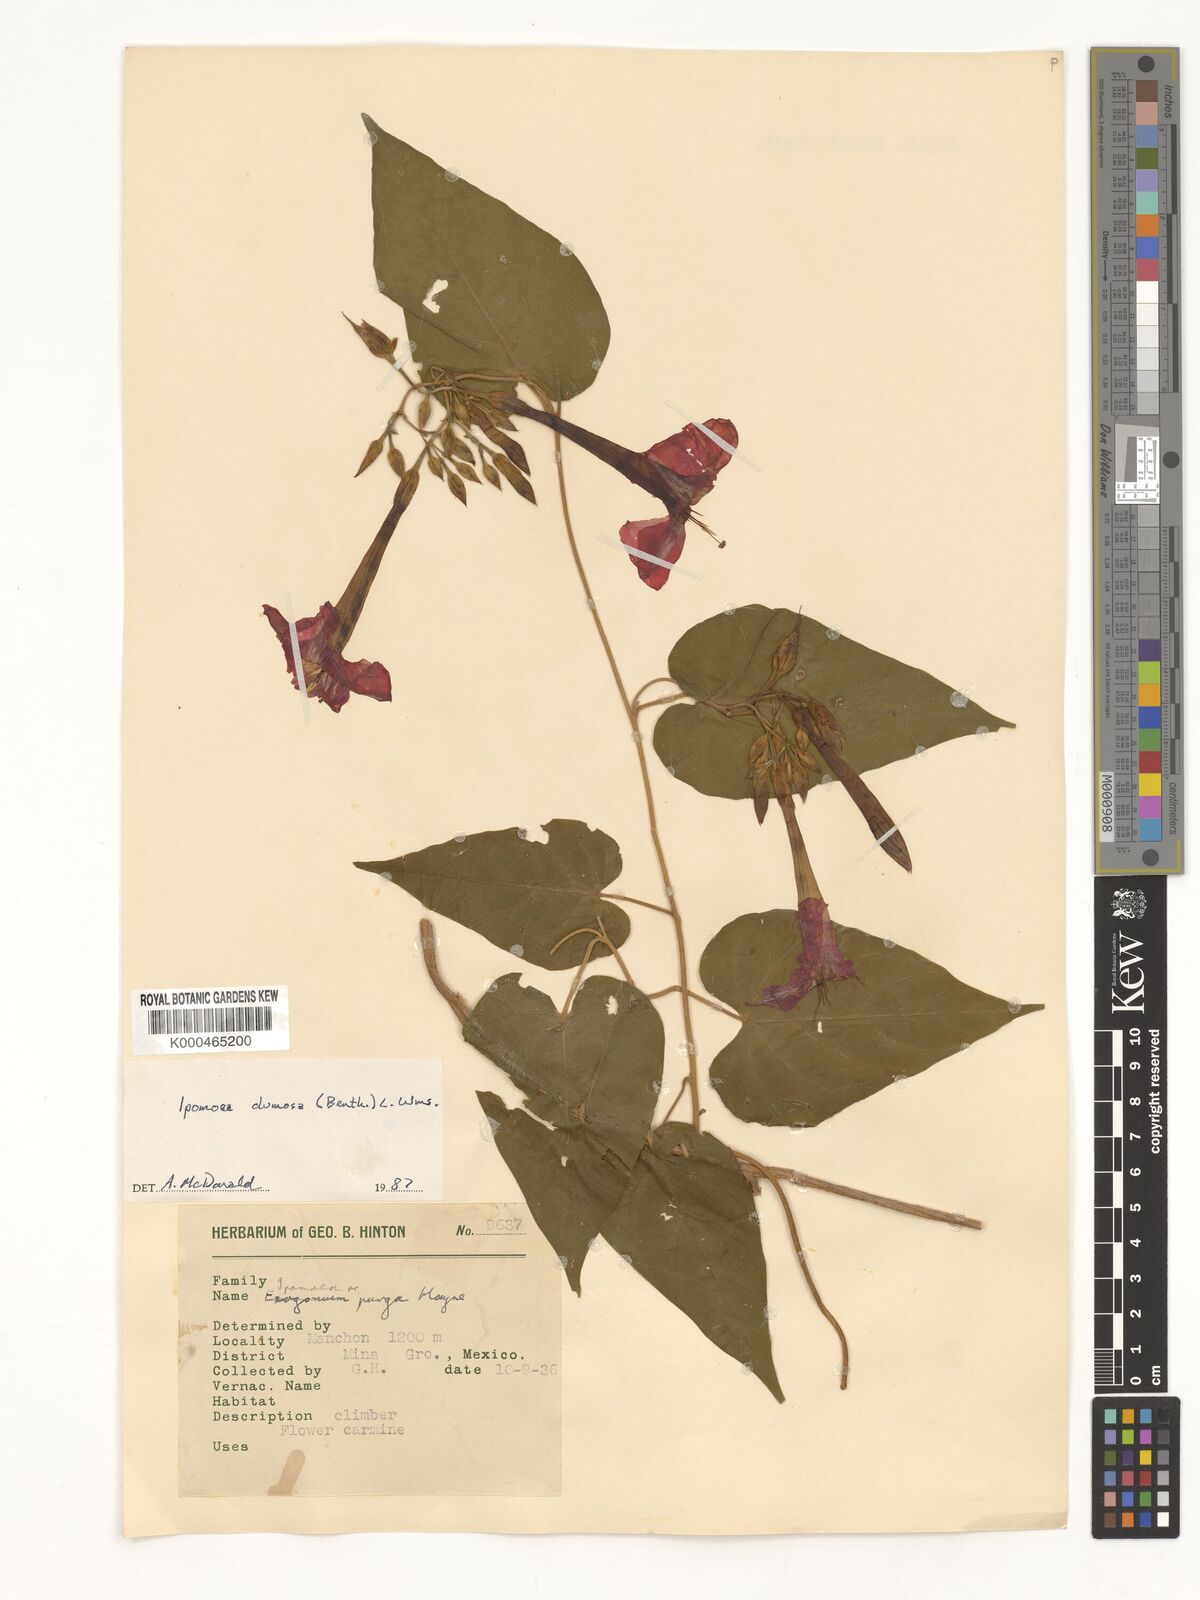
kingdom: Plantae
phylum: Tracheophyta
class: Magnoliopsida
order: Solanales
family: Convolvulaceae
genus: Ipomoea
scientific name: Ipomoea dumosa
